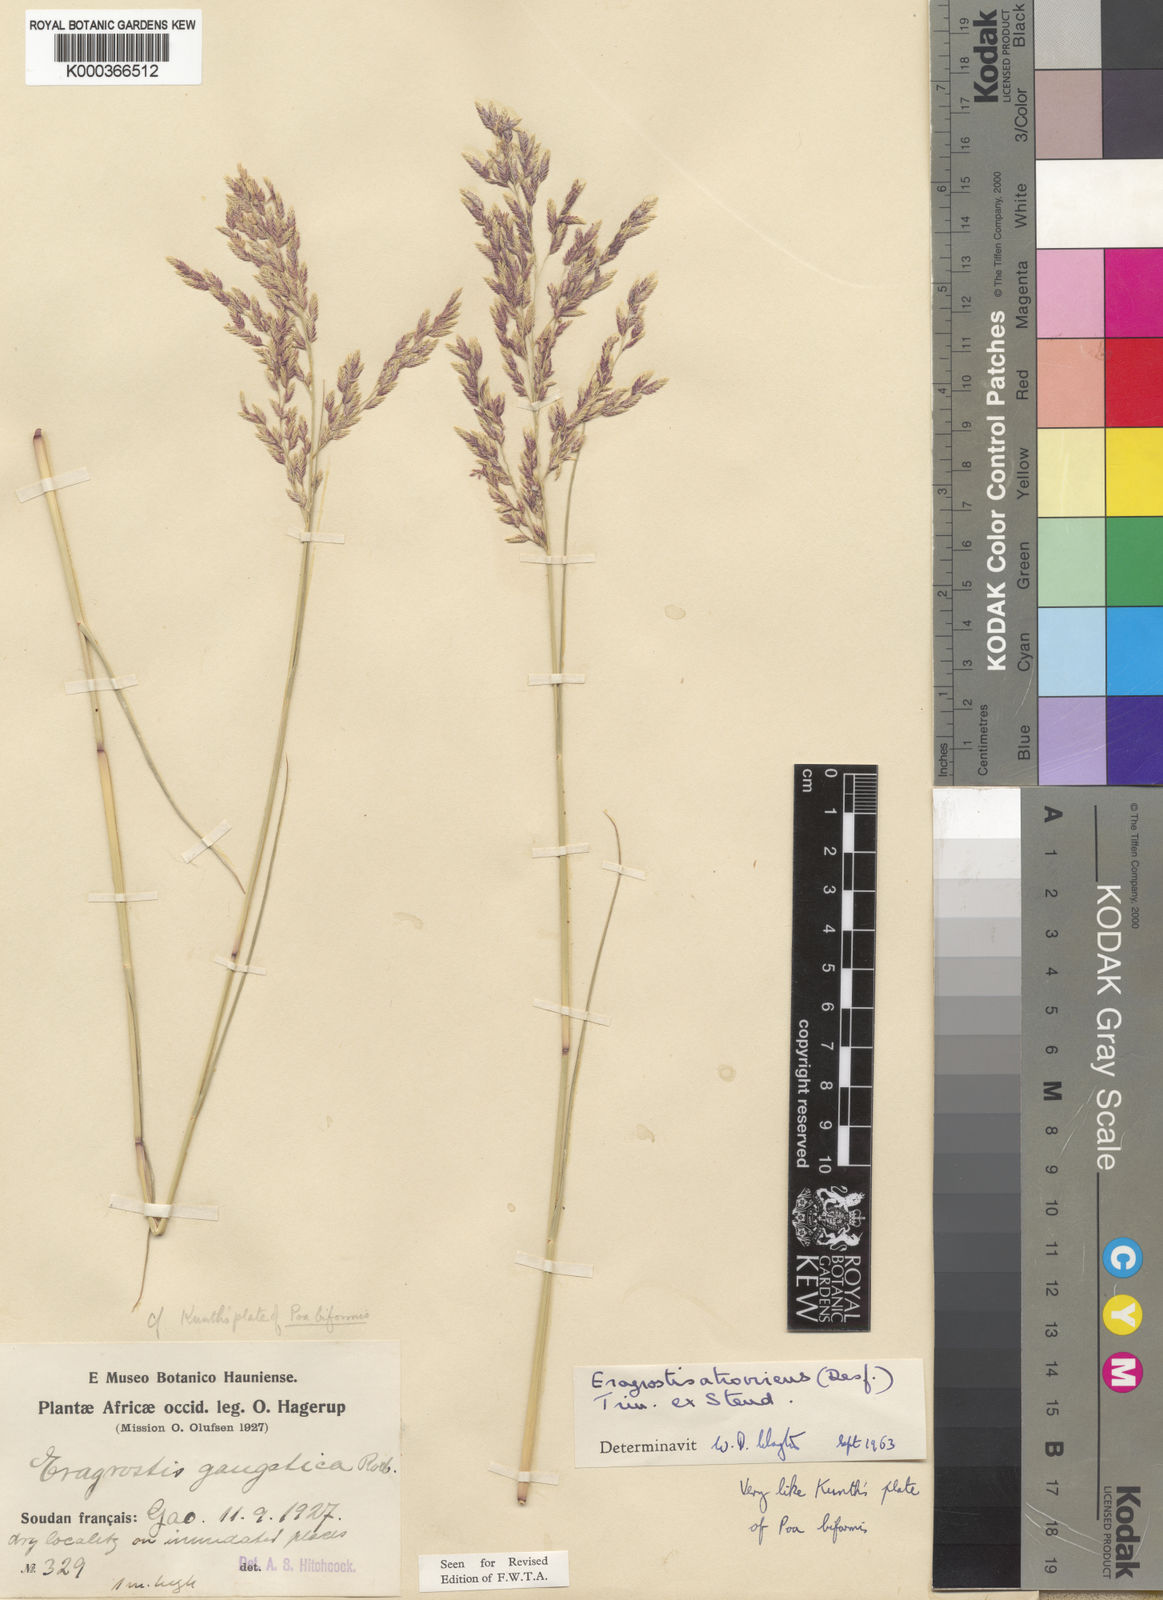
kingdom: Plantae
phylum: Tracheophyta
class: Liliopsida
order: Poales
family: Poaceae
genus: Eragrostis
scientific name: Eragrostis
